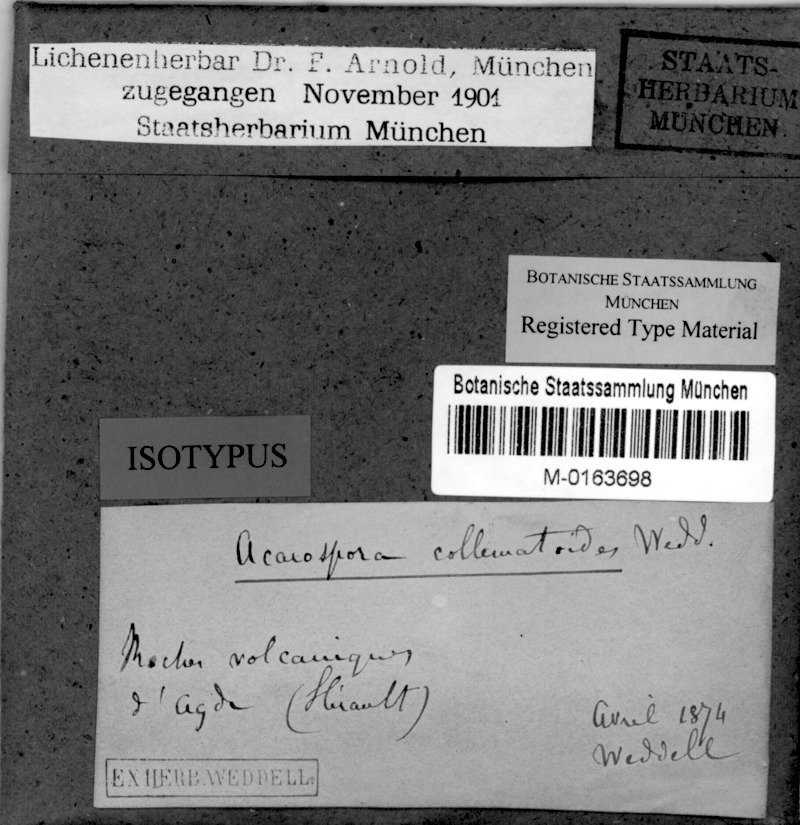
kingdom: Fungi
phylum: Ascomycota
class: Lichinomycetes
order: Lichinales
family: Peltulaceae
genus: Peltula
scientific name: Peltula obscurans
